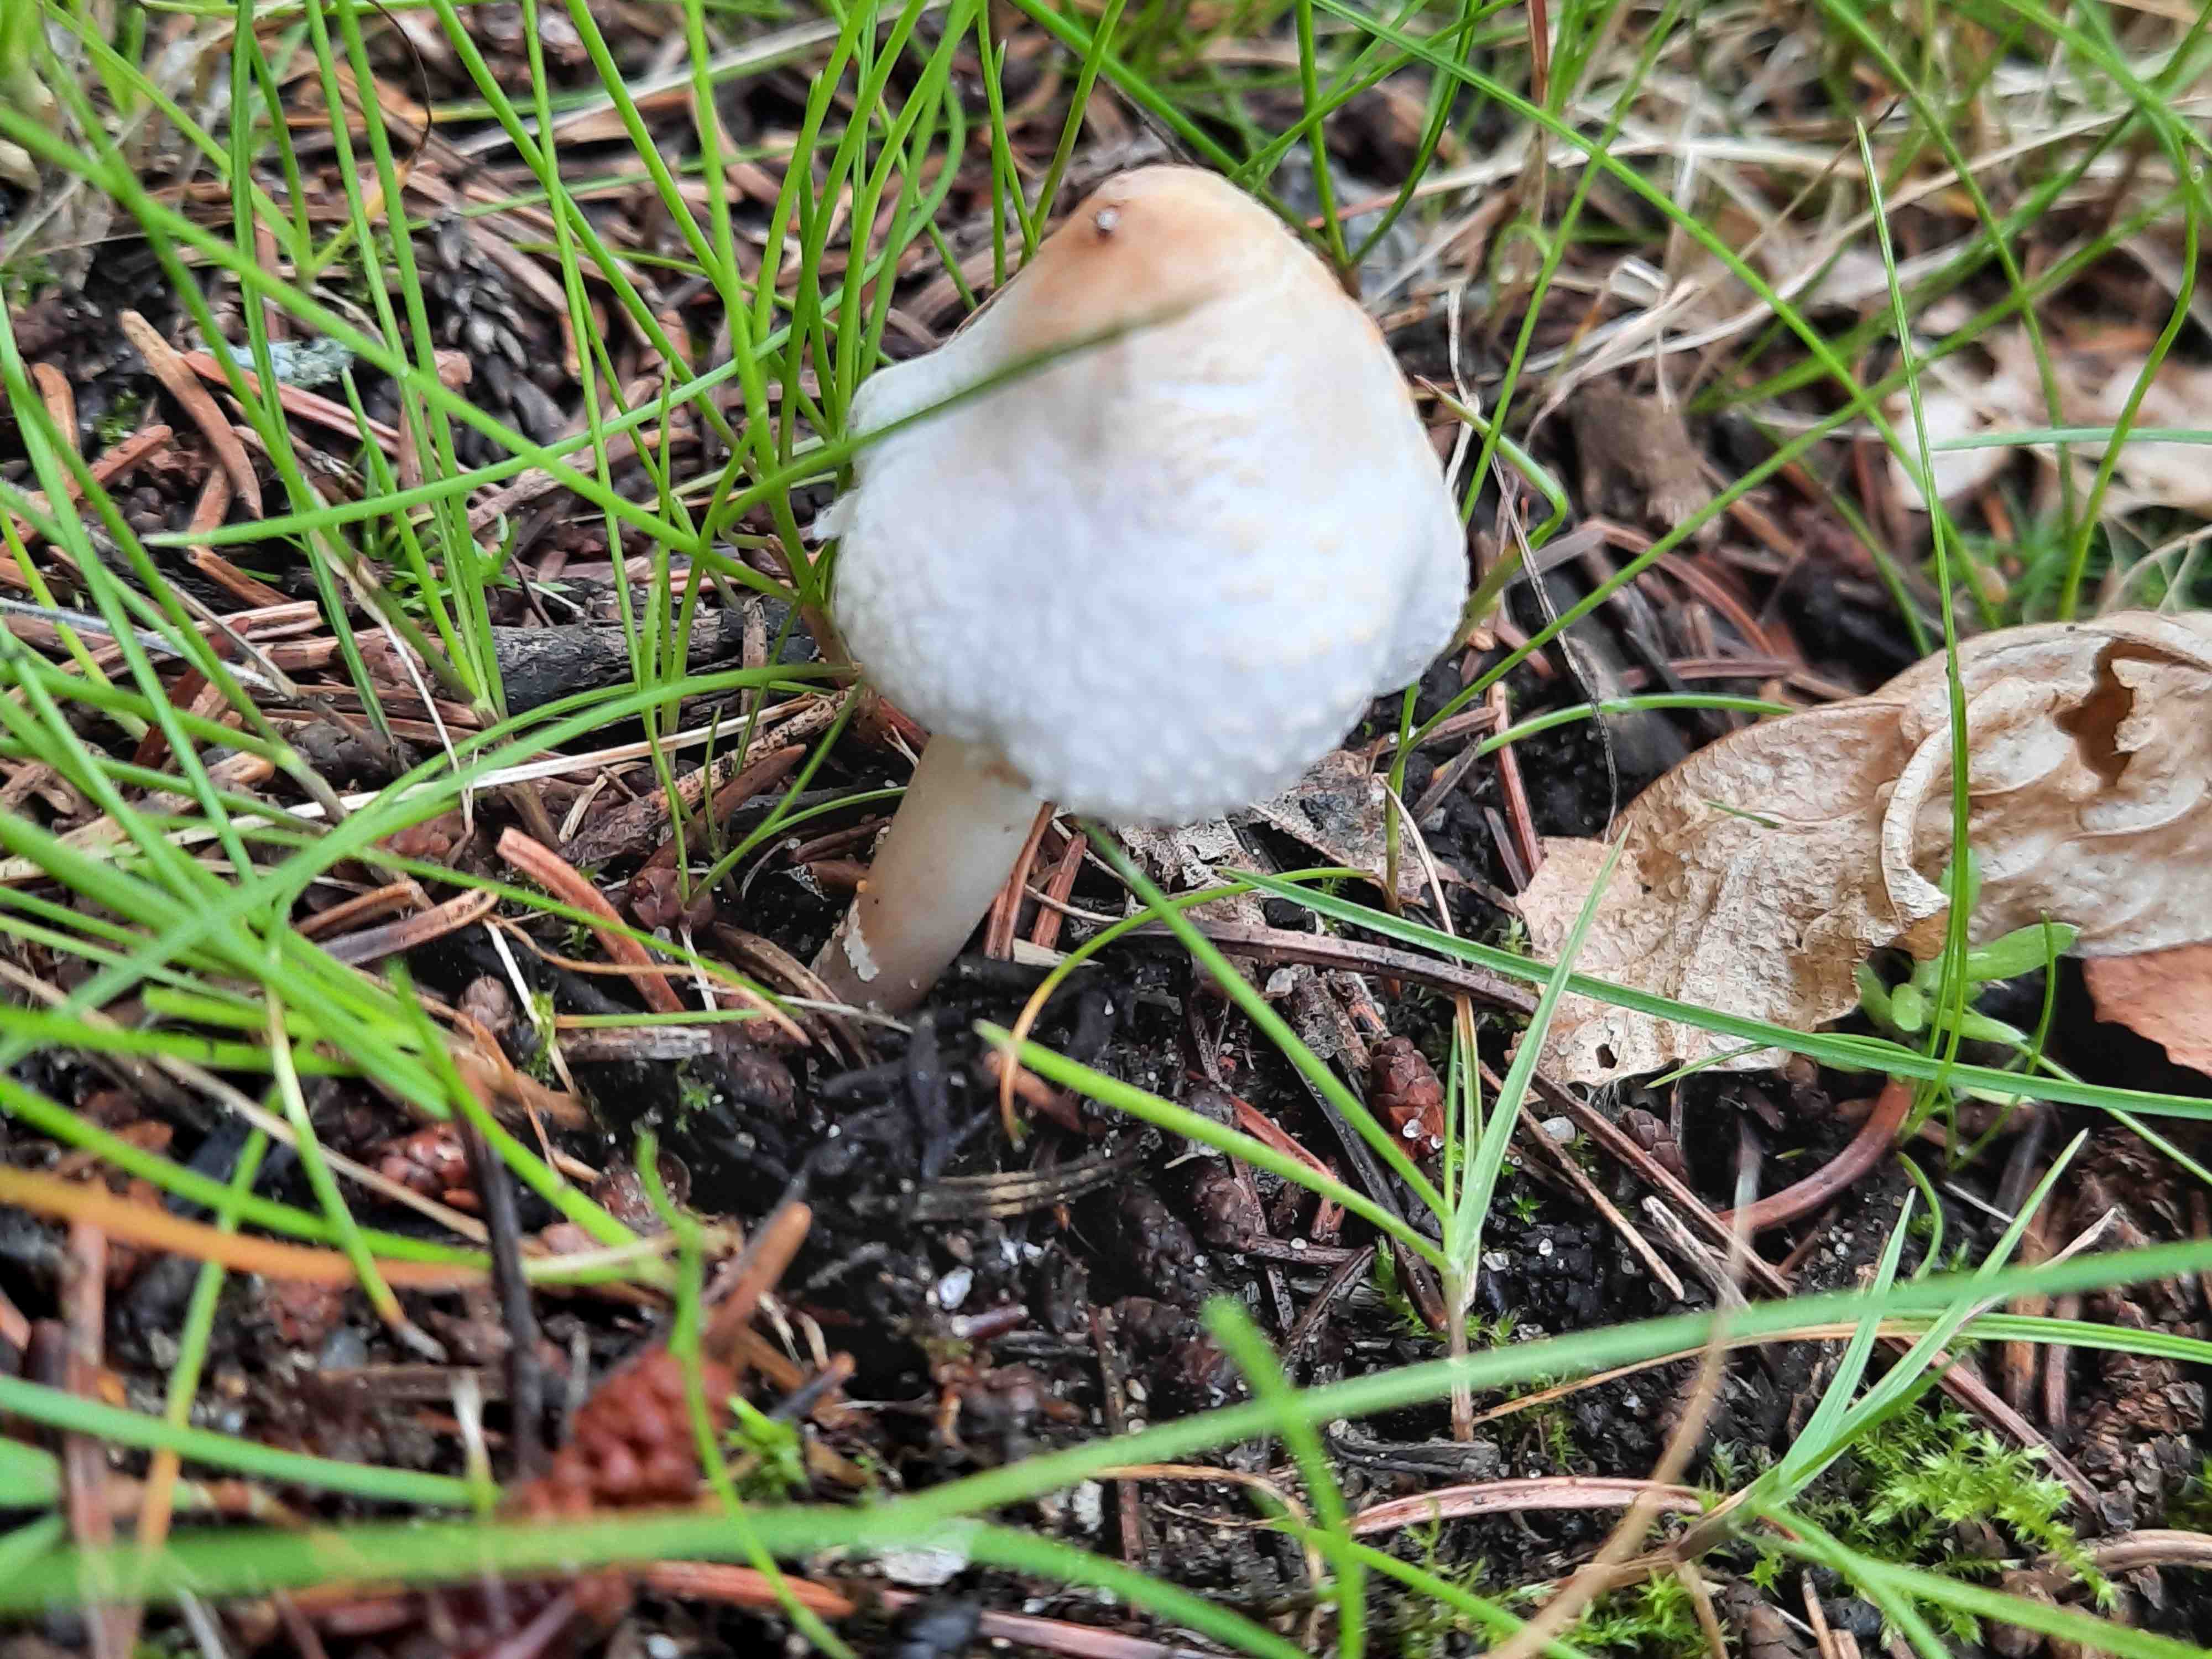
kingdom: Fungi
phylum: Basidiomycota
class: Agaricomycetes
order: Agaricales
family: Agaricaceae
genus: Lepiota
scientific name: Lepiota cristata
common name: stinkende parasolhat
